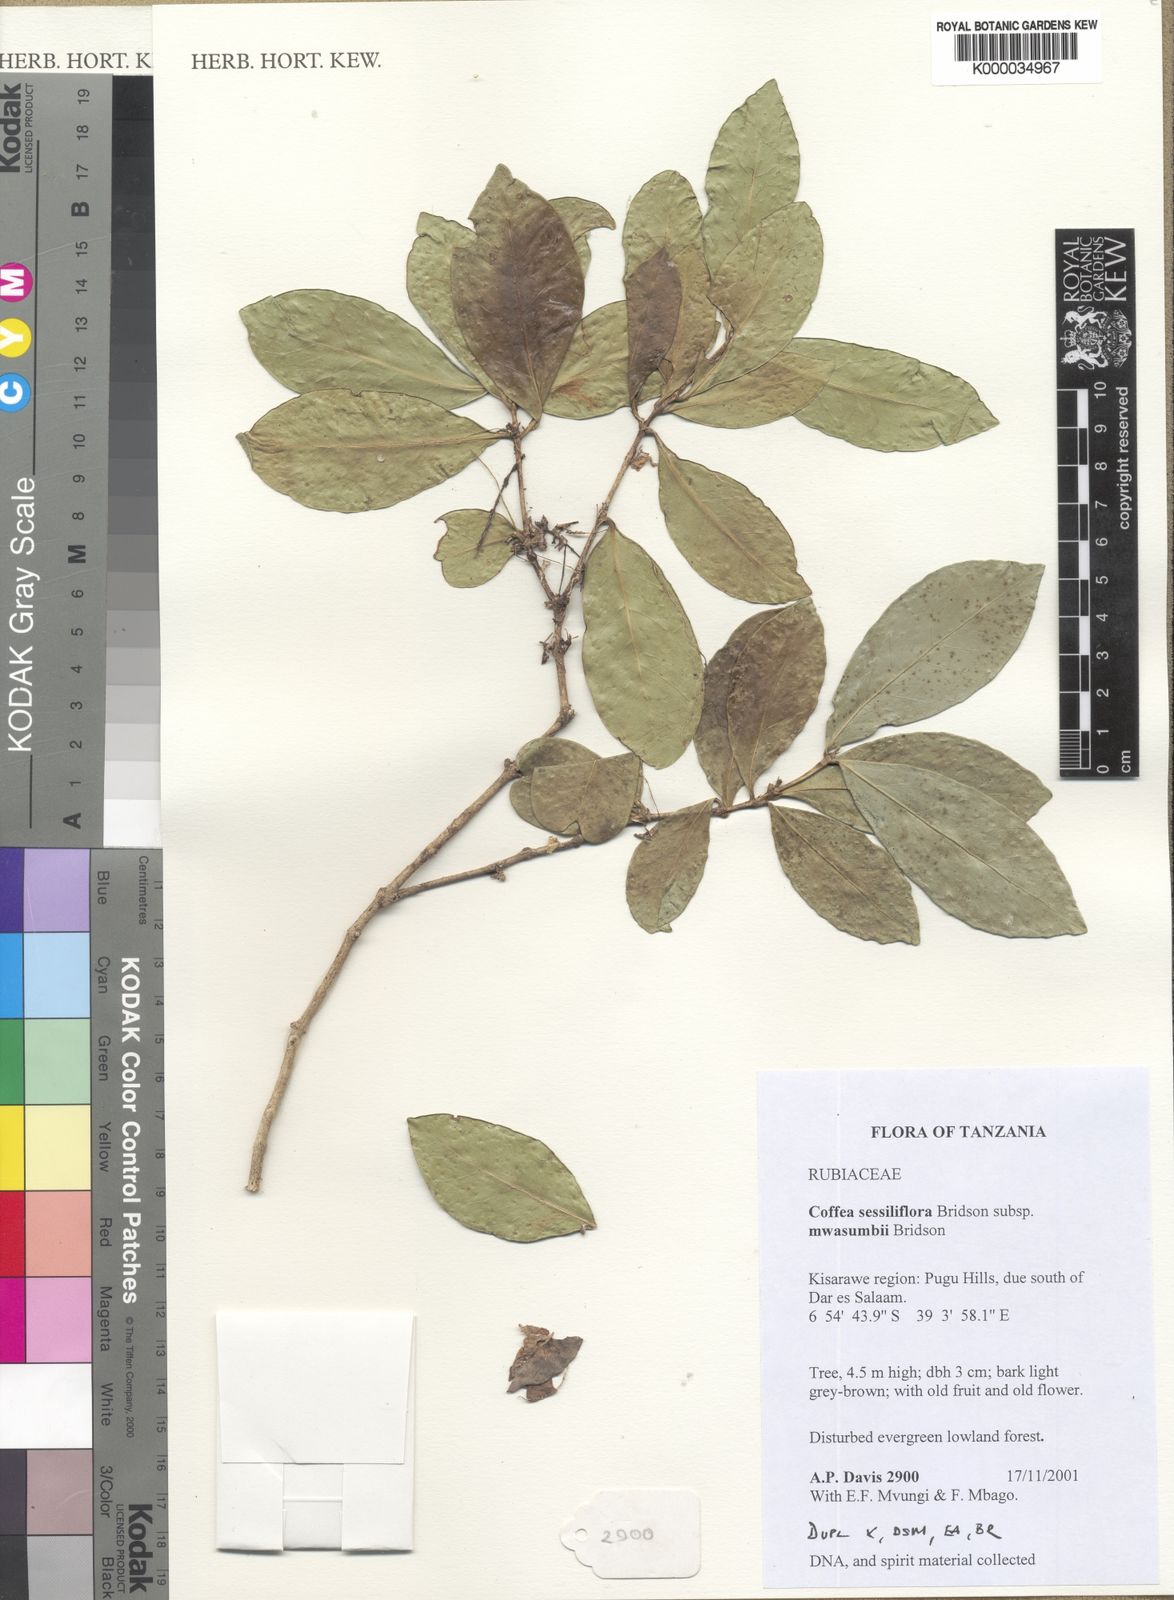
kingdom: Plantae
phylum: Tracheophyta
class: Magnoliopsida
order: Gentianales
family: Rubiaceae
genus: Coffea
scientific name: Coffea sessiliflora
